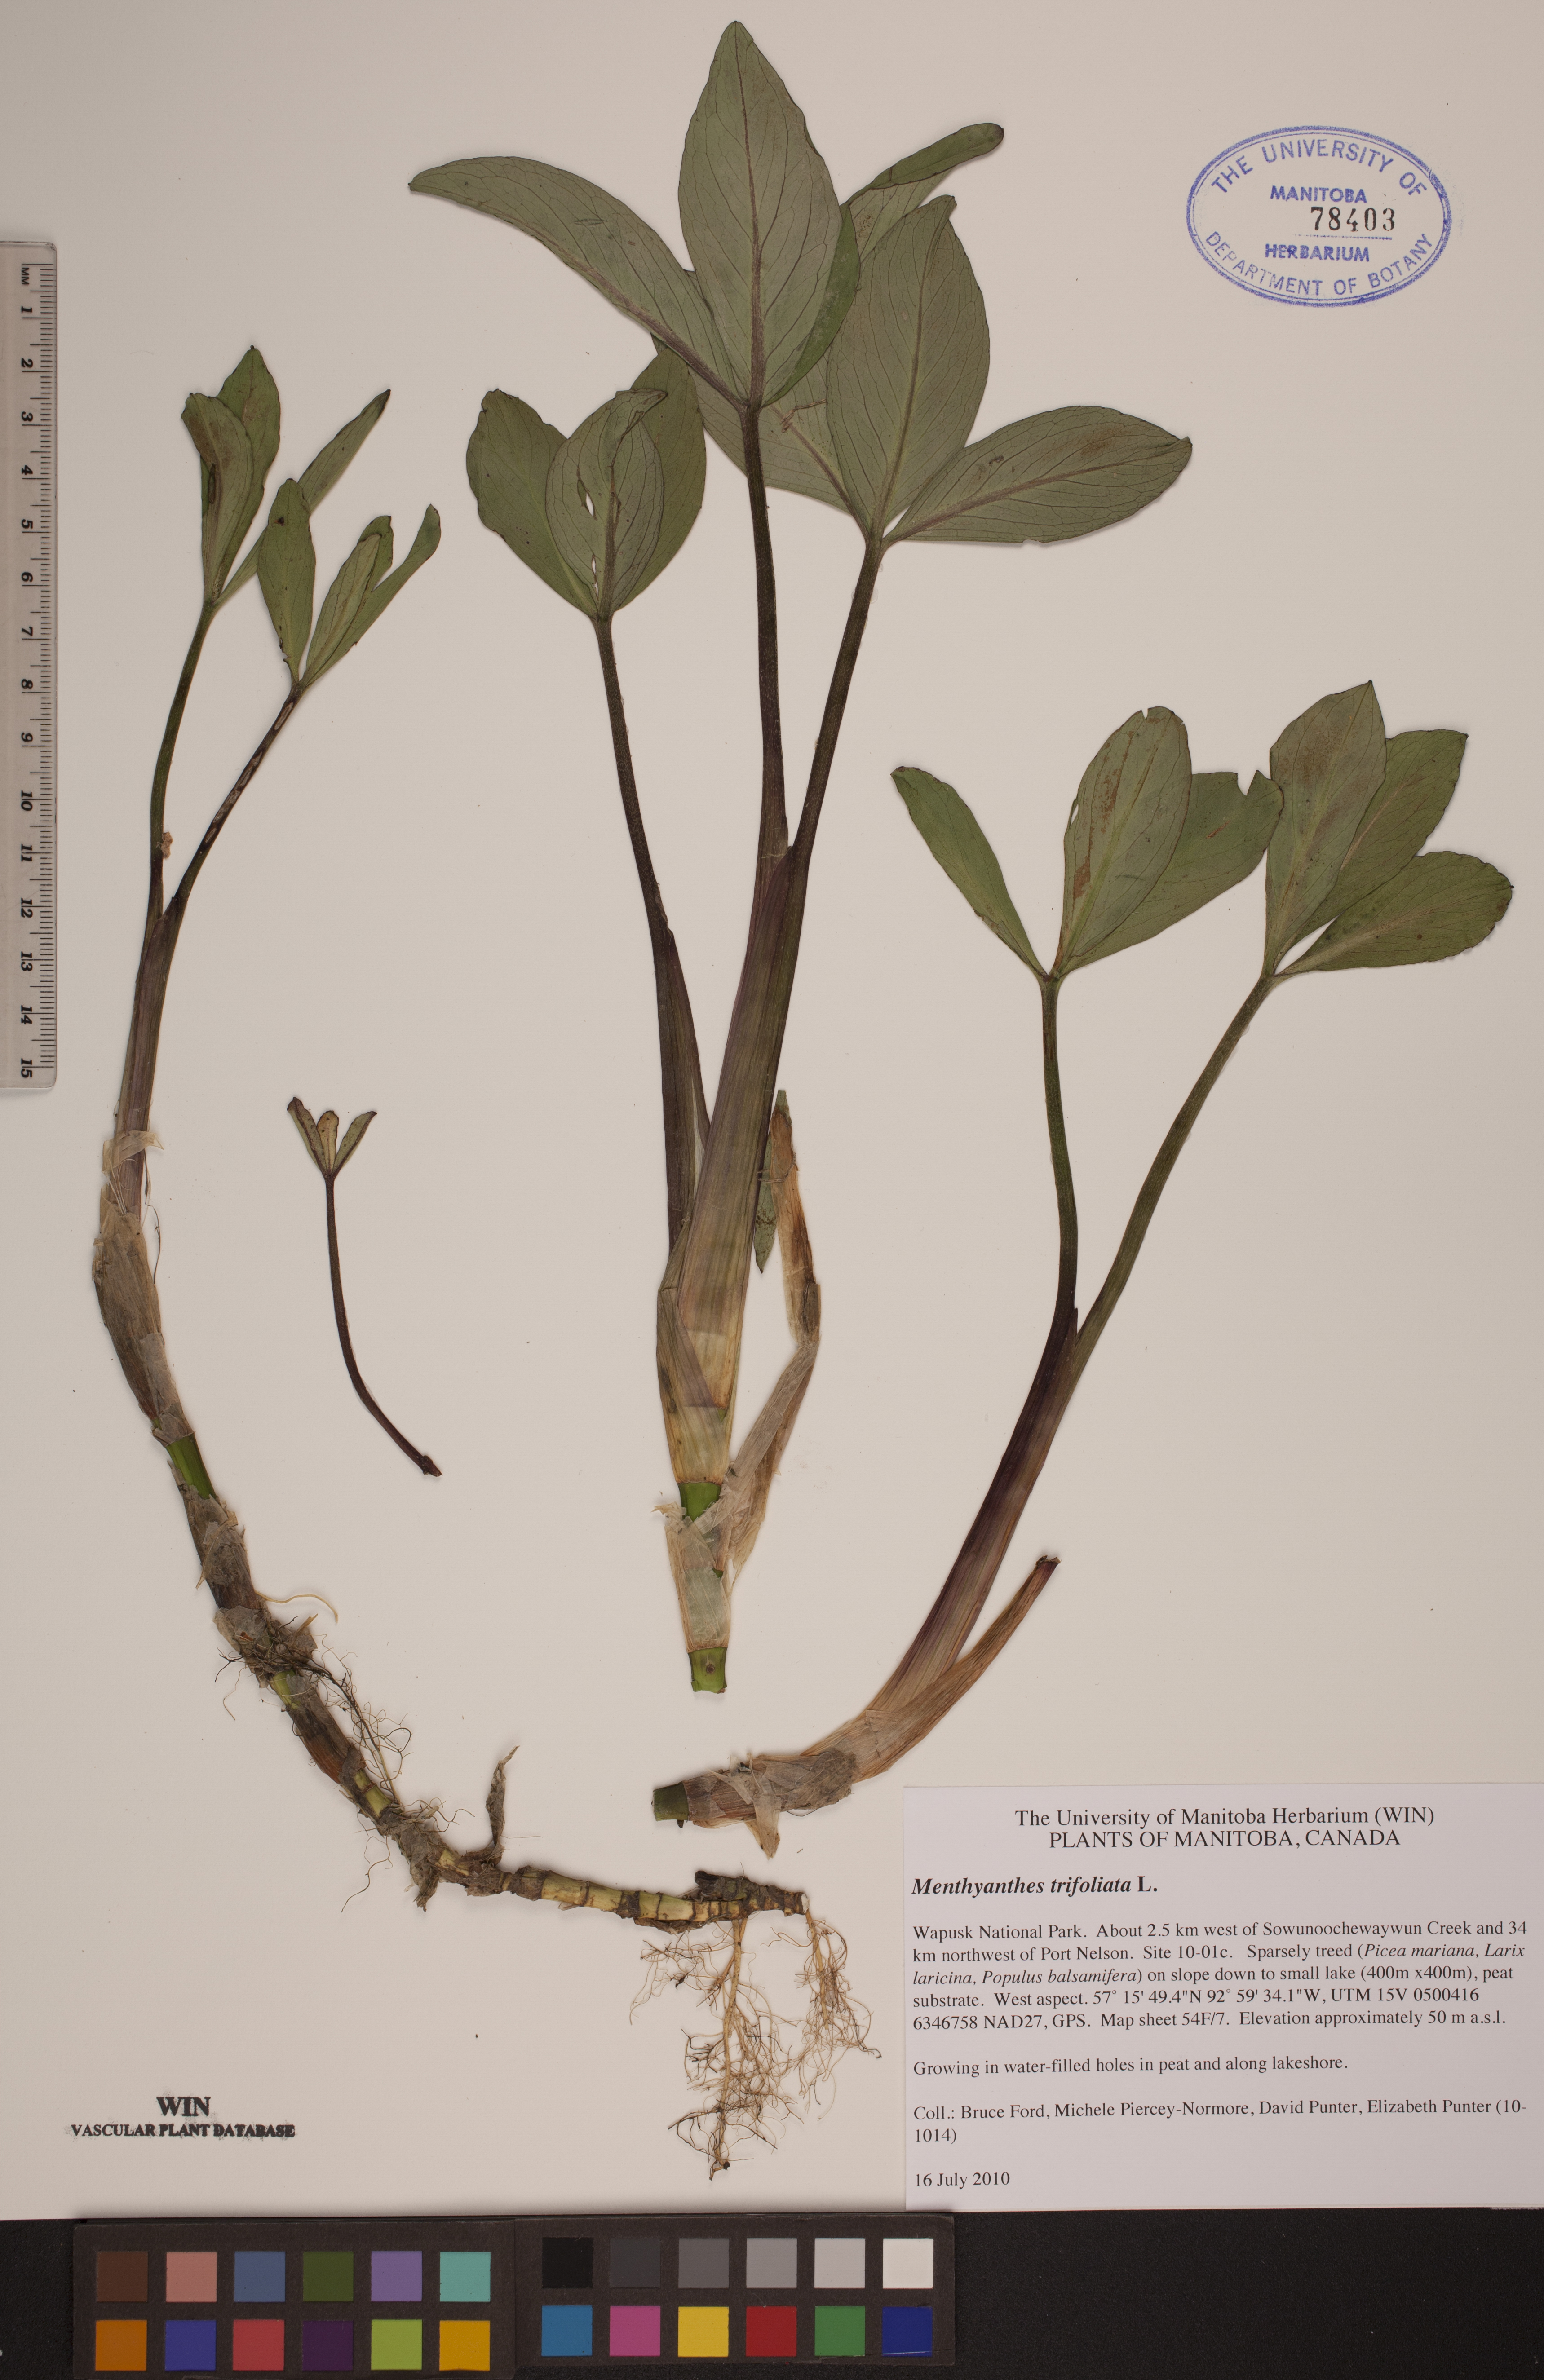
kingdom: Plantae
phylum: Tracheophyta
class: Magnoliopsida
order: Asterales
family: Menyanthaceae
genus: Menyanthes
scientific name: Menyanthes trifoliata
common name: Bogbean
